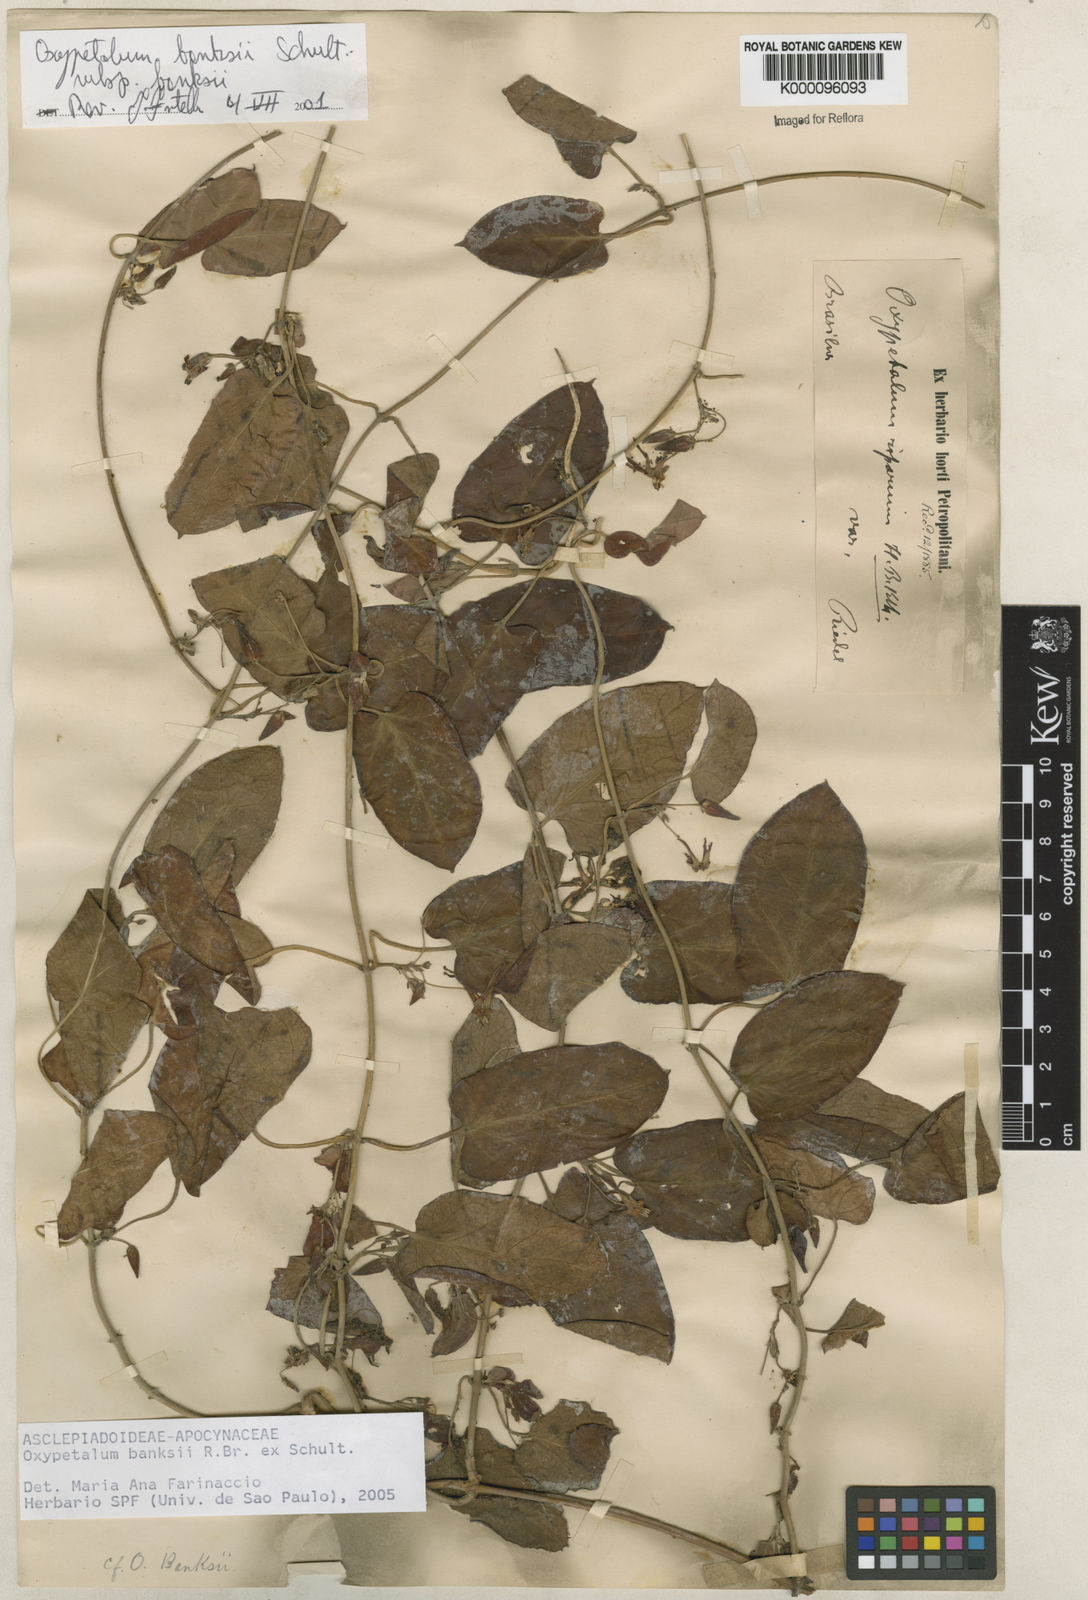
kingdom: Plantae
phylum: Tracheophyta
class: Magnoliopsida
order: Gentianales
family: Apocynaceae
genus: Oxypetalum
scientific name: Oxypetalum banksii
